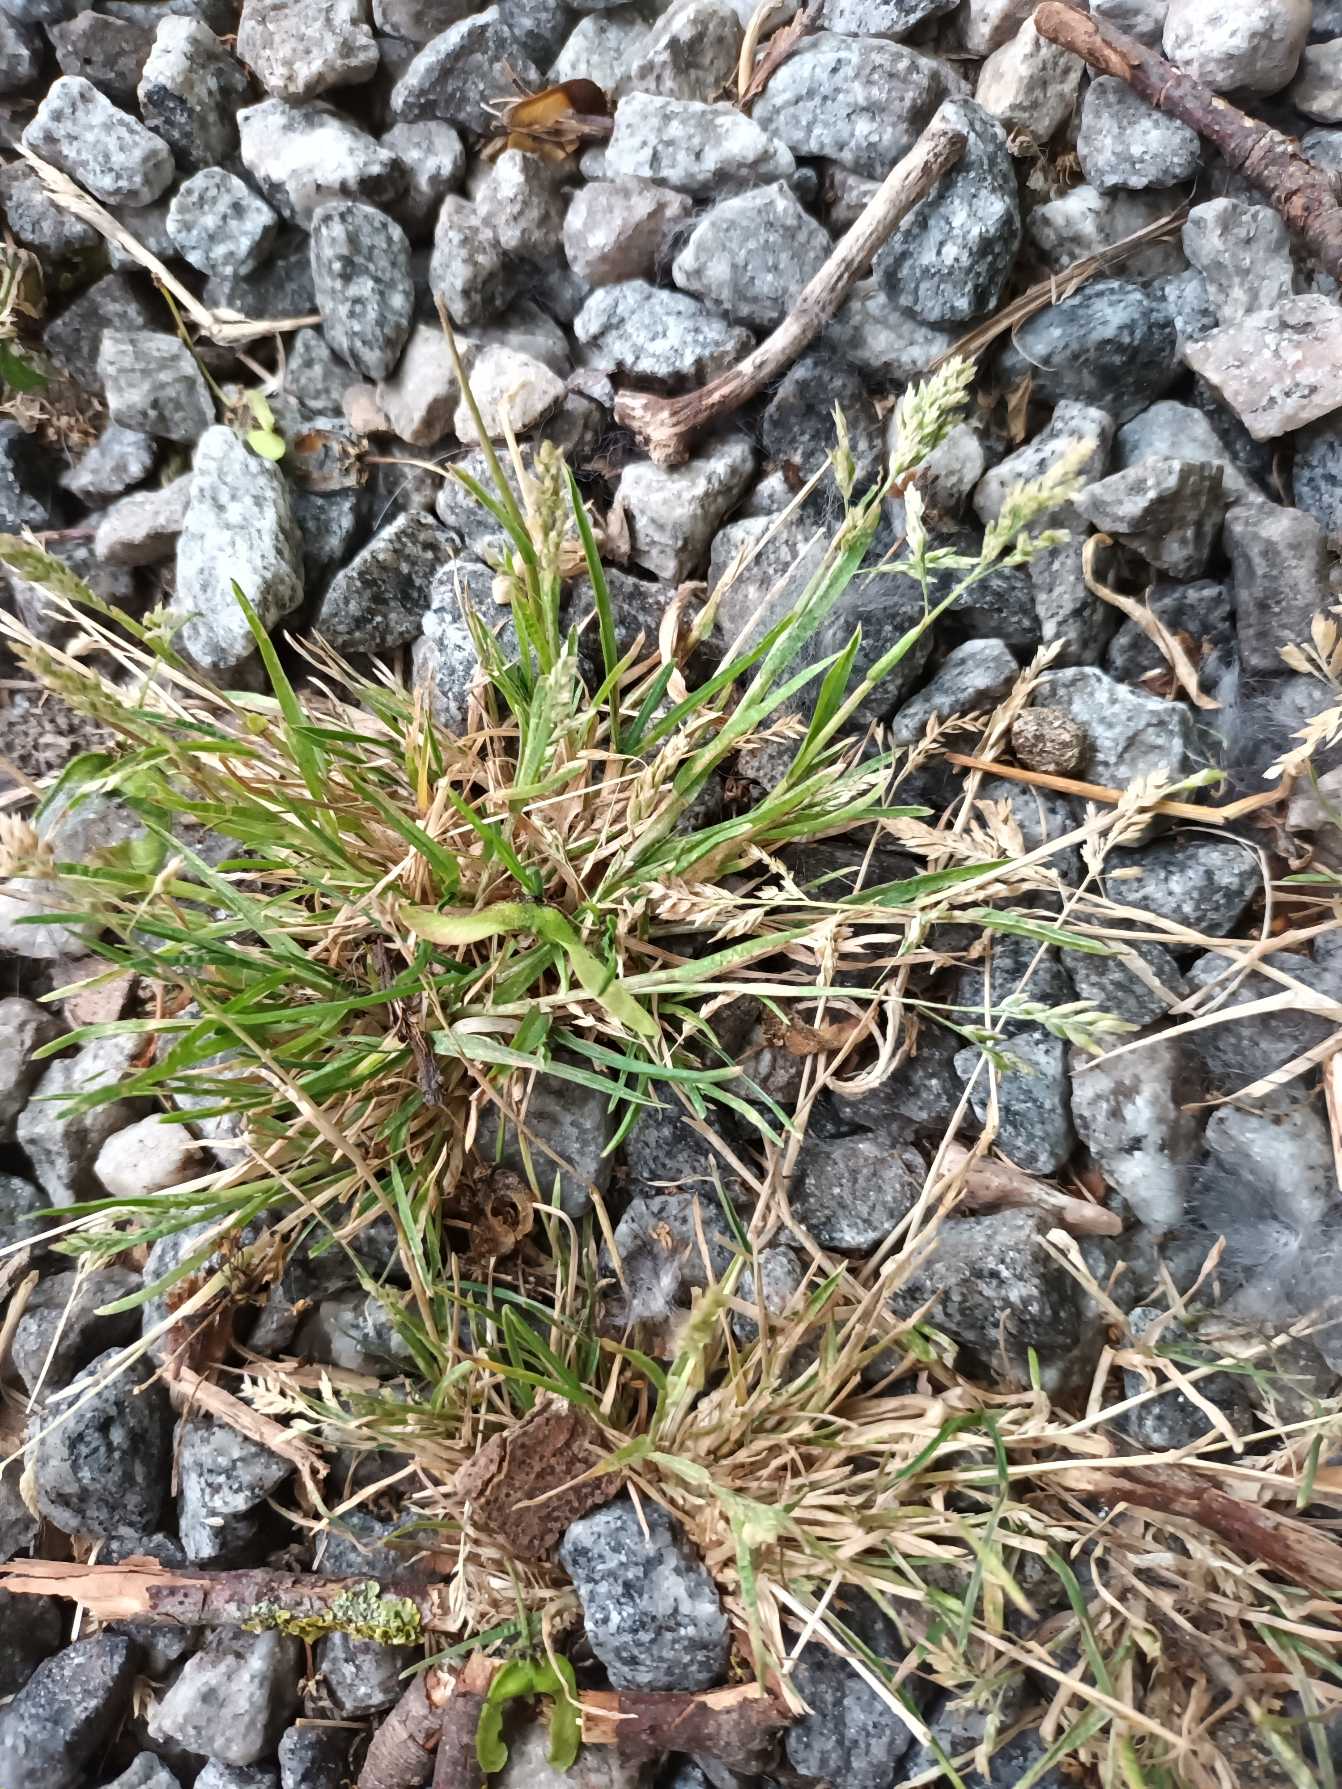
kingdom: Plantae
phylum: Tracheophyta
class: Liliopsida
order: Poales
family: Poaceae
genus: Poa
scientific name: Poa annua
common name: Enårig rapgræs
